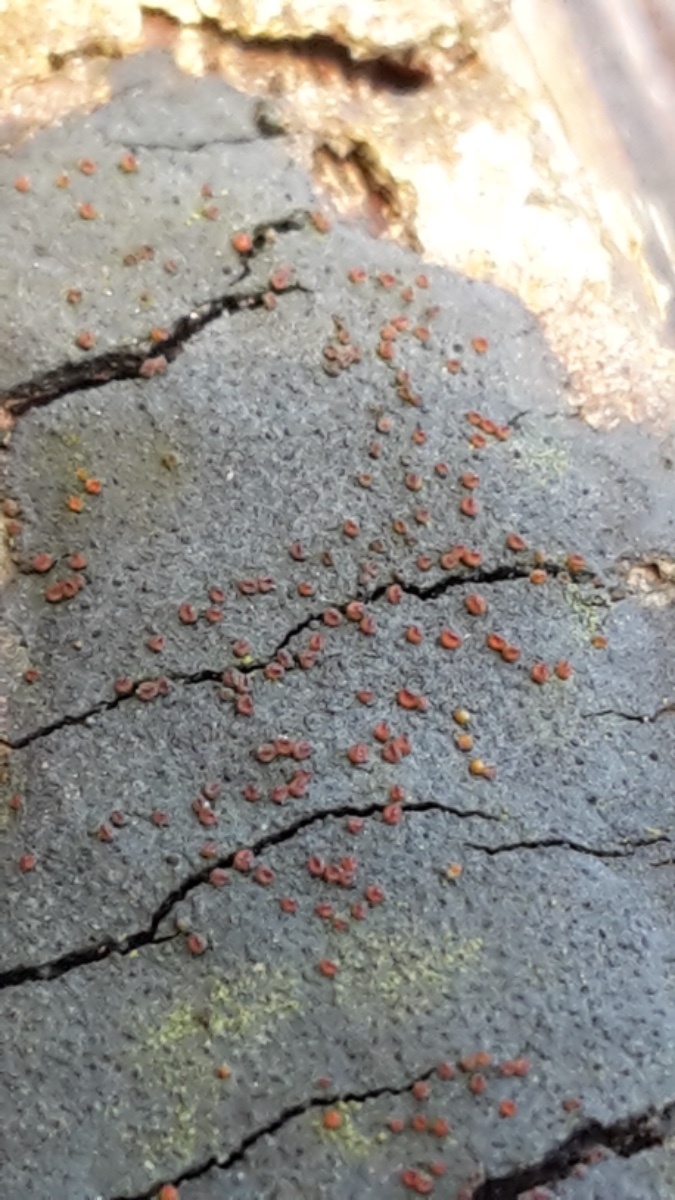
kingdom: Fungi
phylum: Ascomycota
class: Sordariomycetes
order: Hypocreales
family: Nectriaceae
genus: Dialonectria
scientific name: Dialonectria episphaeria
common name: kulskorpe-cinnobersvamp
